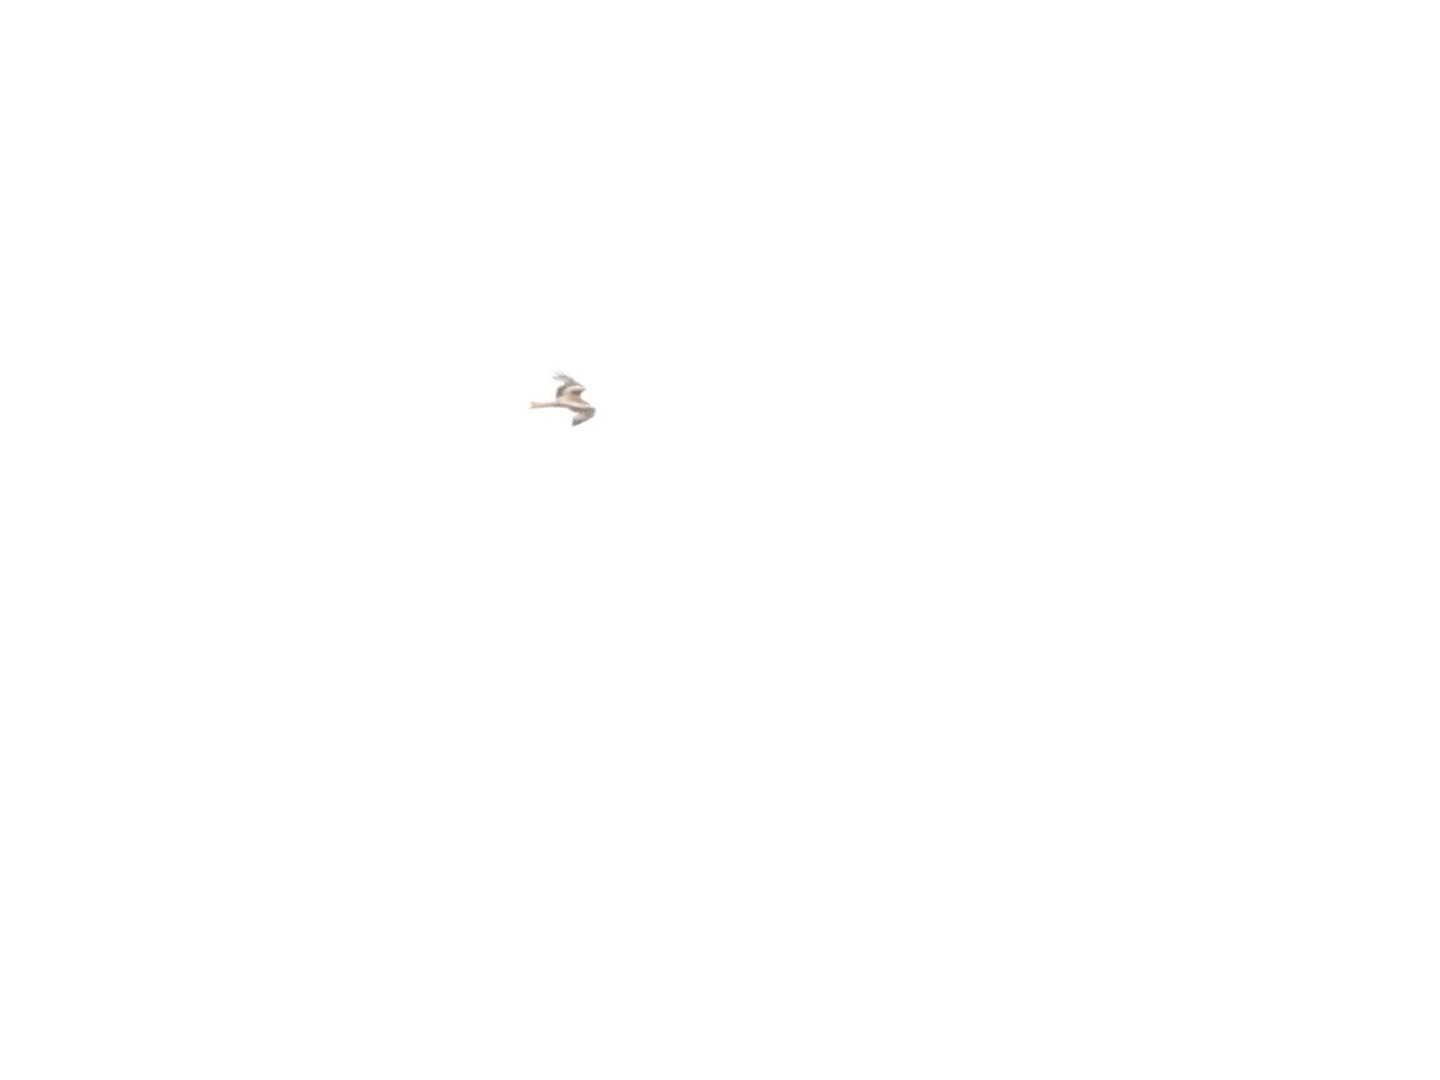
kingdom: Animalia
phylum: Chordata
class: Aves
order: Accipitriformes
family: Accipitridae
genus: Milvus
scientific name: Milvus milvus
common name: Rød glente
